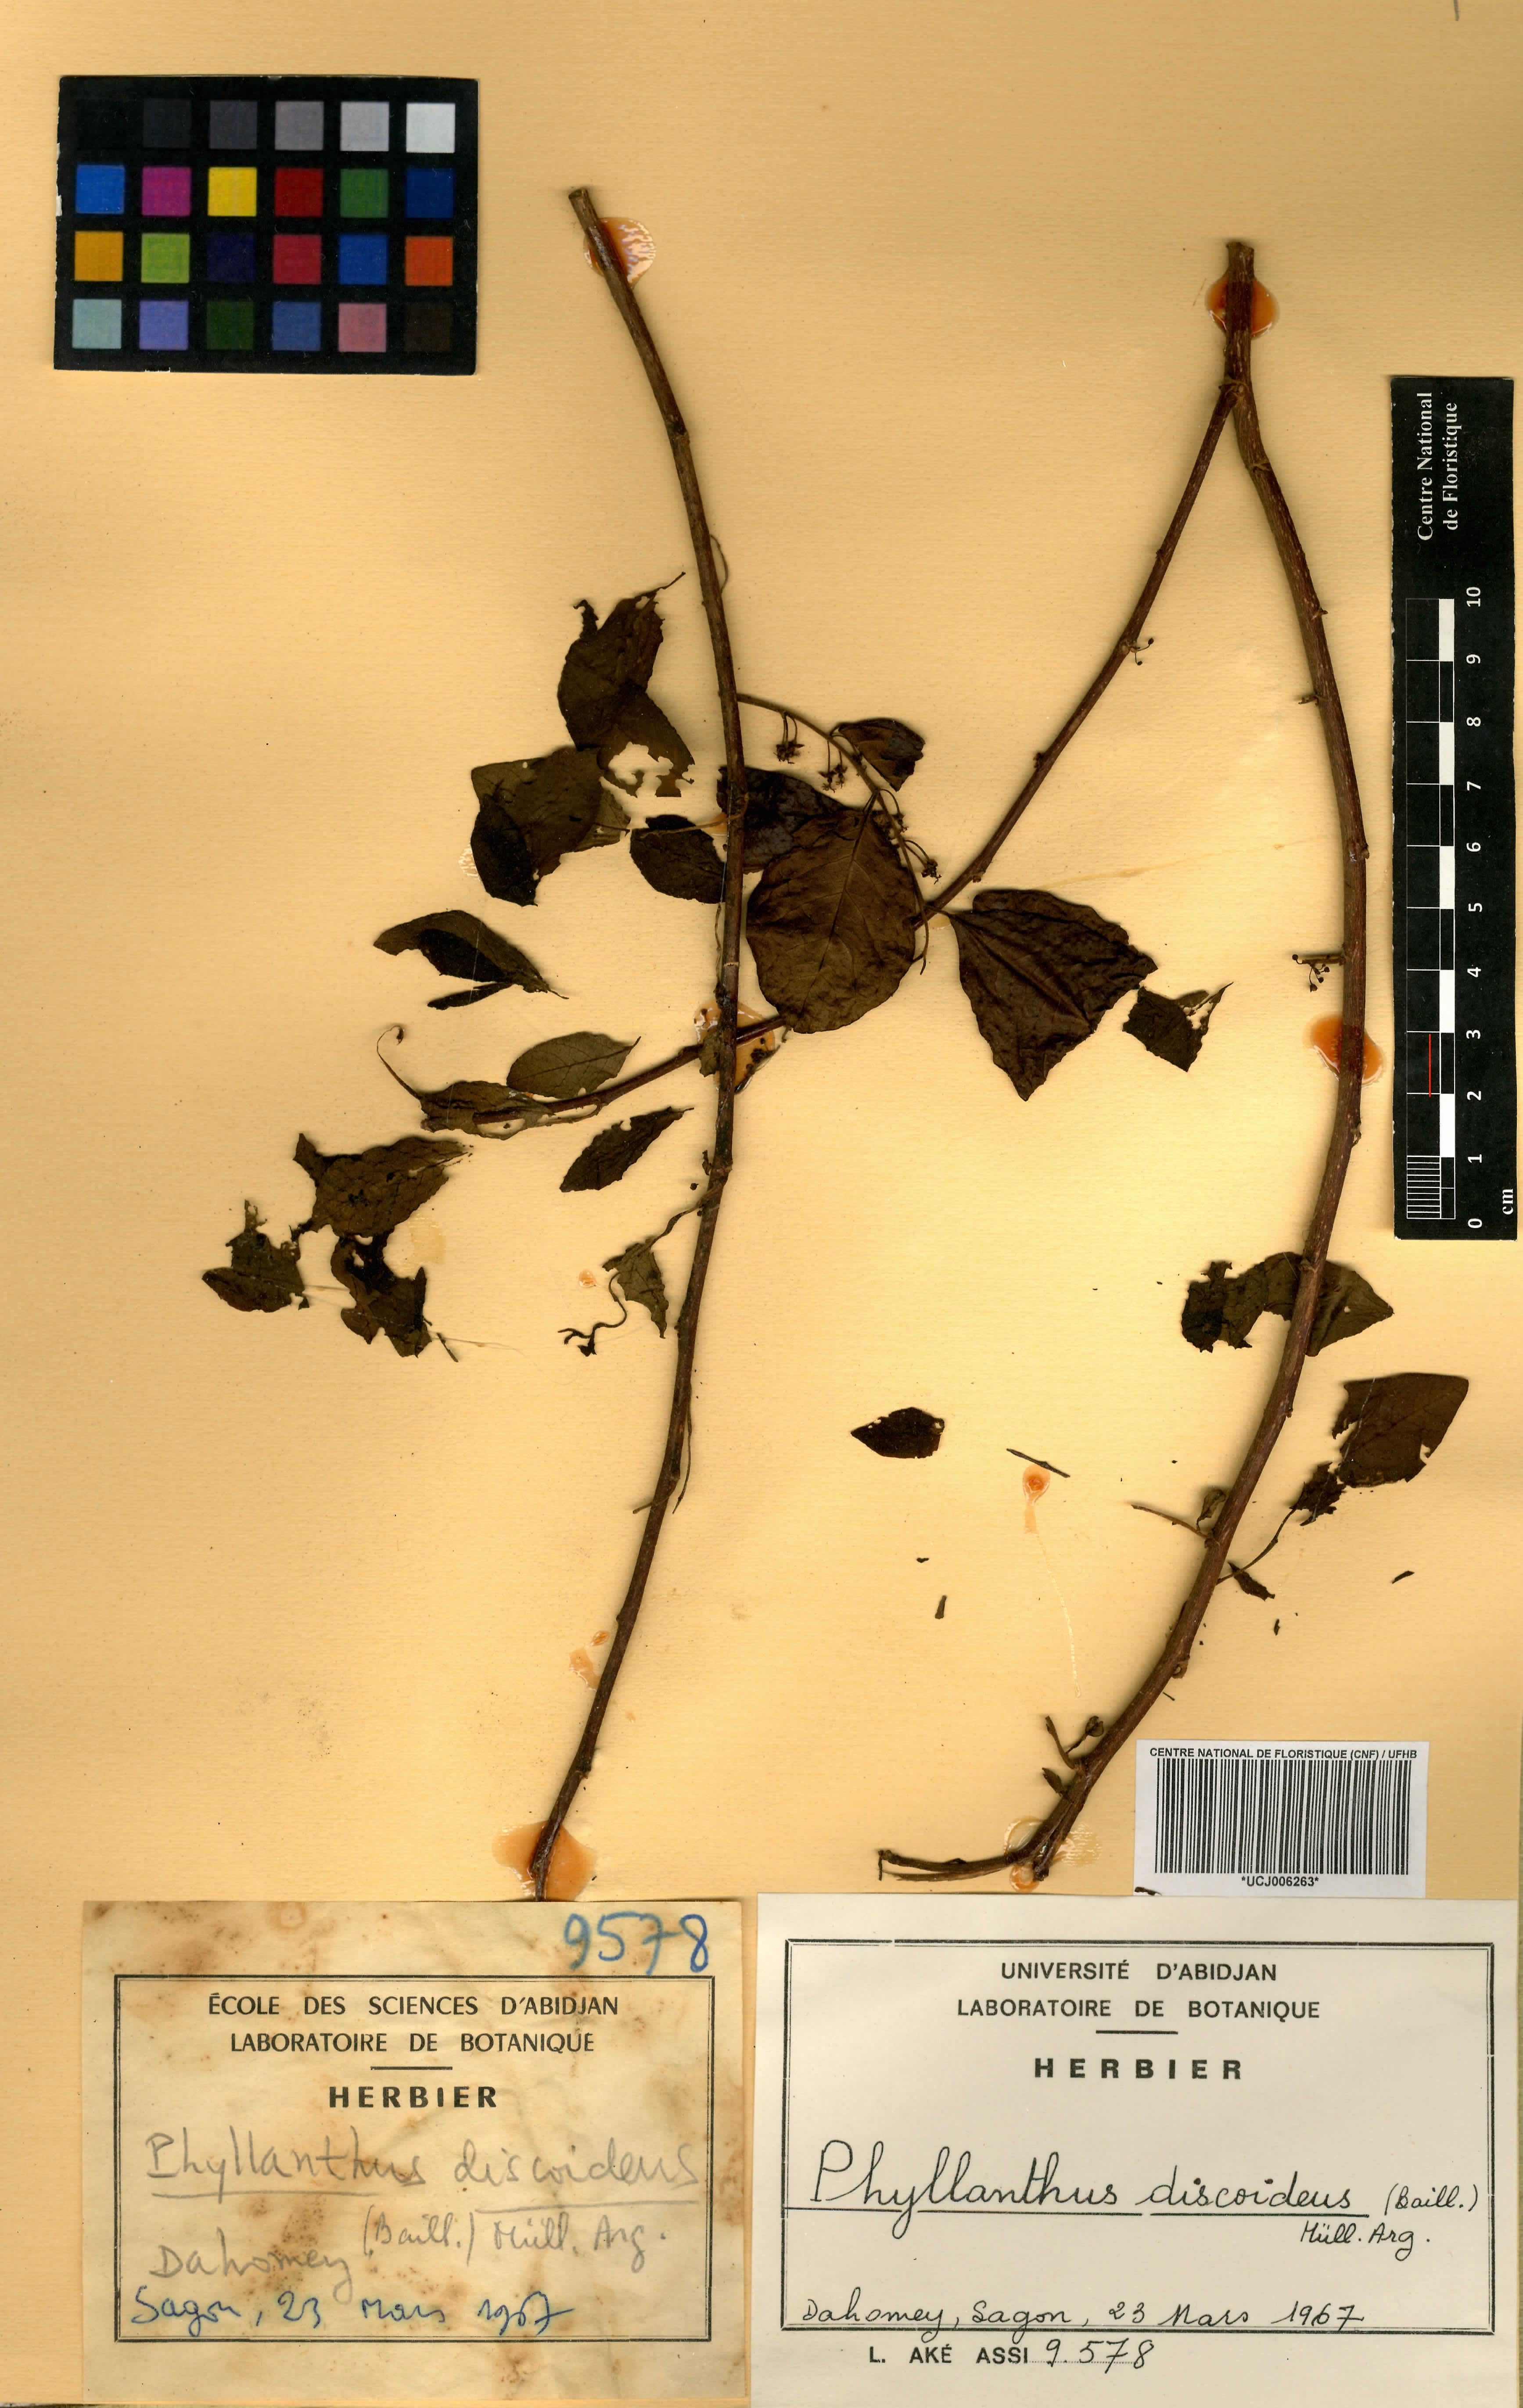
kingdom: Plantae
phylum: Tracheophyta
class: Magnoliopsida
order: Malpighiales
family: Phyllanthaceae
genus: Margaritaria
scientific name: Margaritaria discoidea
